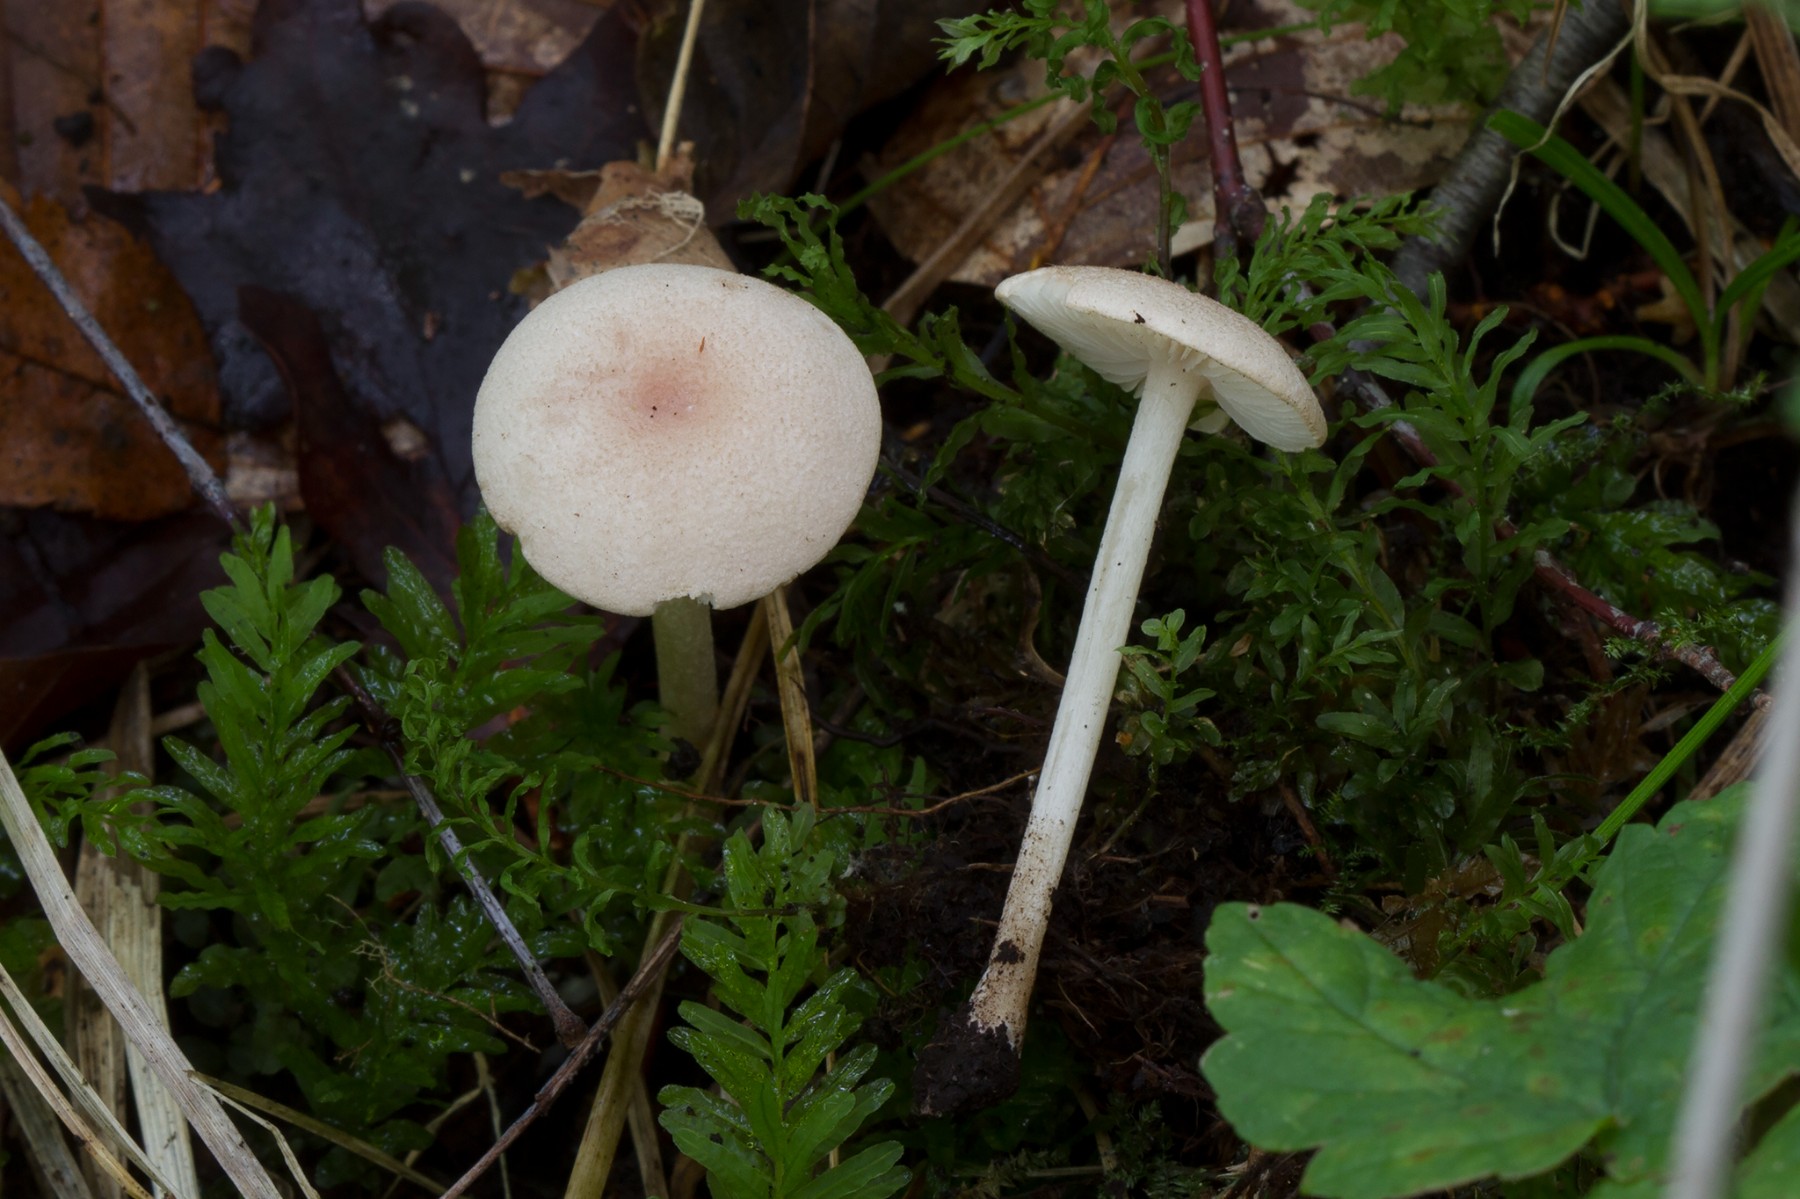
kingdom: Fungi
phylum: Basidiomycota
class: Agaricomycetes
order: Agaricales
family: Entolomataceae
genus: Entoloma
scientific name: Entoloma queletii
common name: rosalilla rødblad
